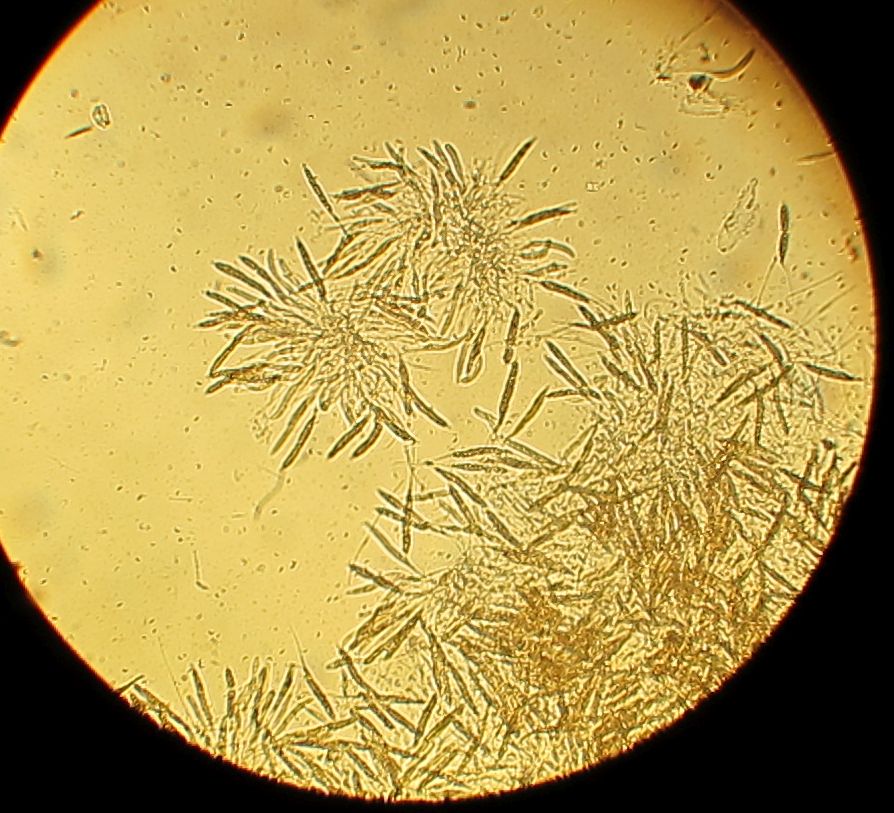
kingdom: Fungi
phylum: Ascomycota
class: Sordariomycetes
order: Xylariales
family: Diatrypaceae
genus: Diatrypella
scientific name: Diatrypella quercina
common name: ege-kulskorpe
